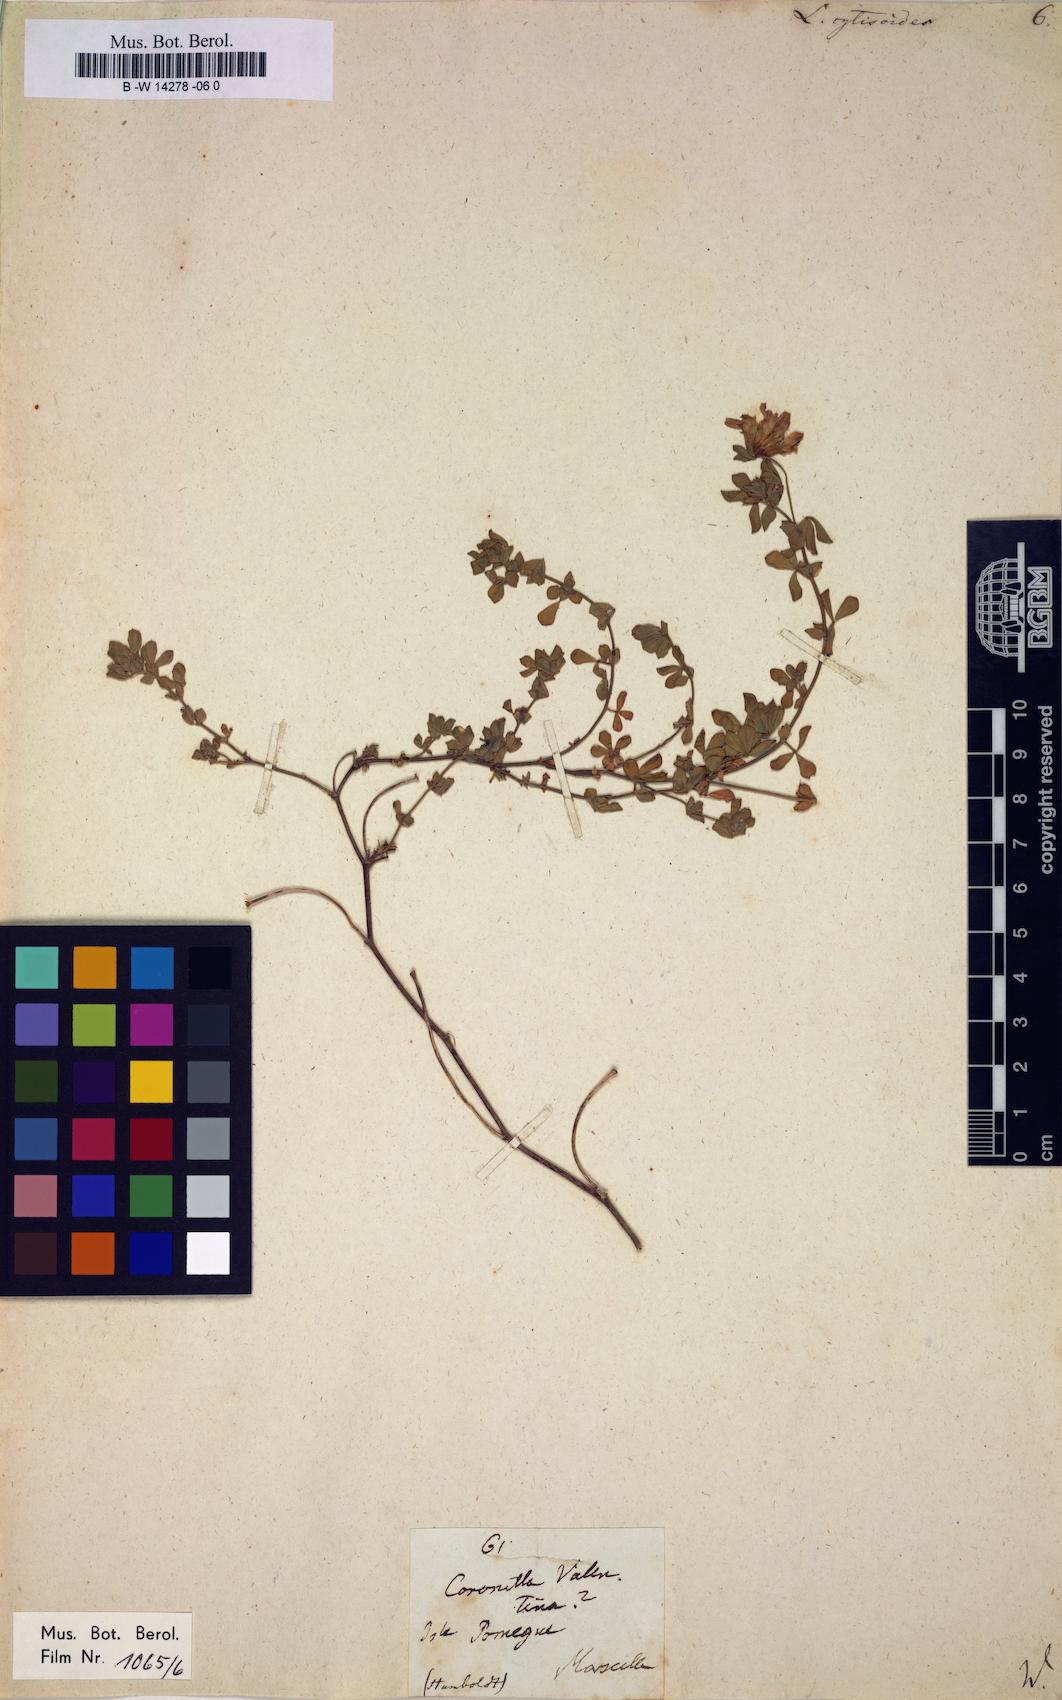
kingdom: Plantae
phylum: Tracheophyta
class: Magnoliopsida
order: Fabales
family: Fabaceae
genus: Lotus
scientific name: Lotus cytisoides
